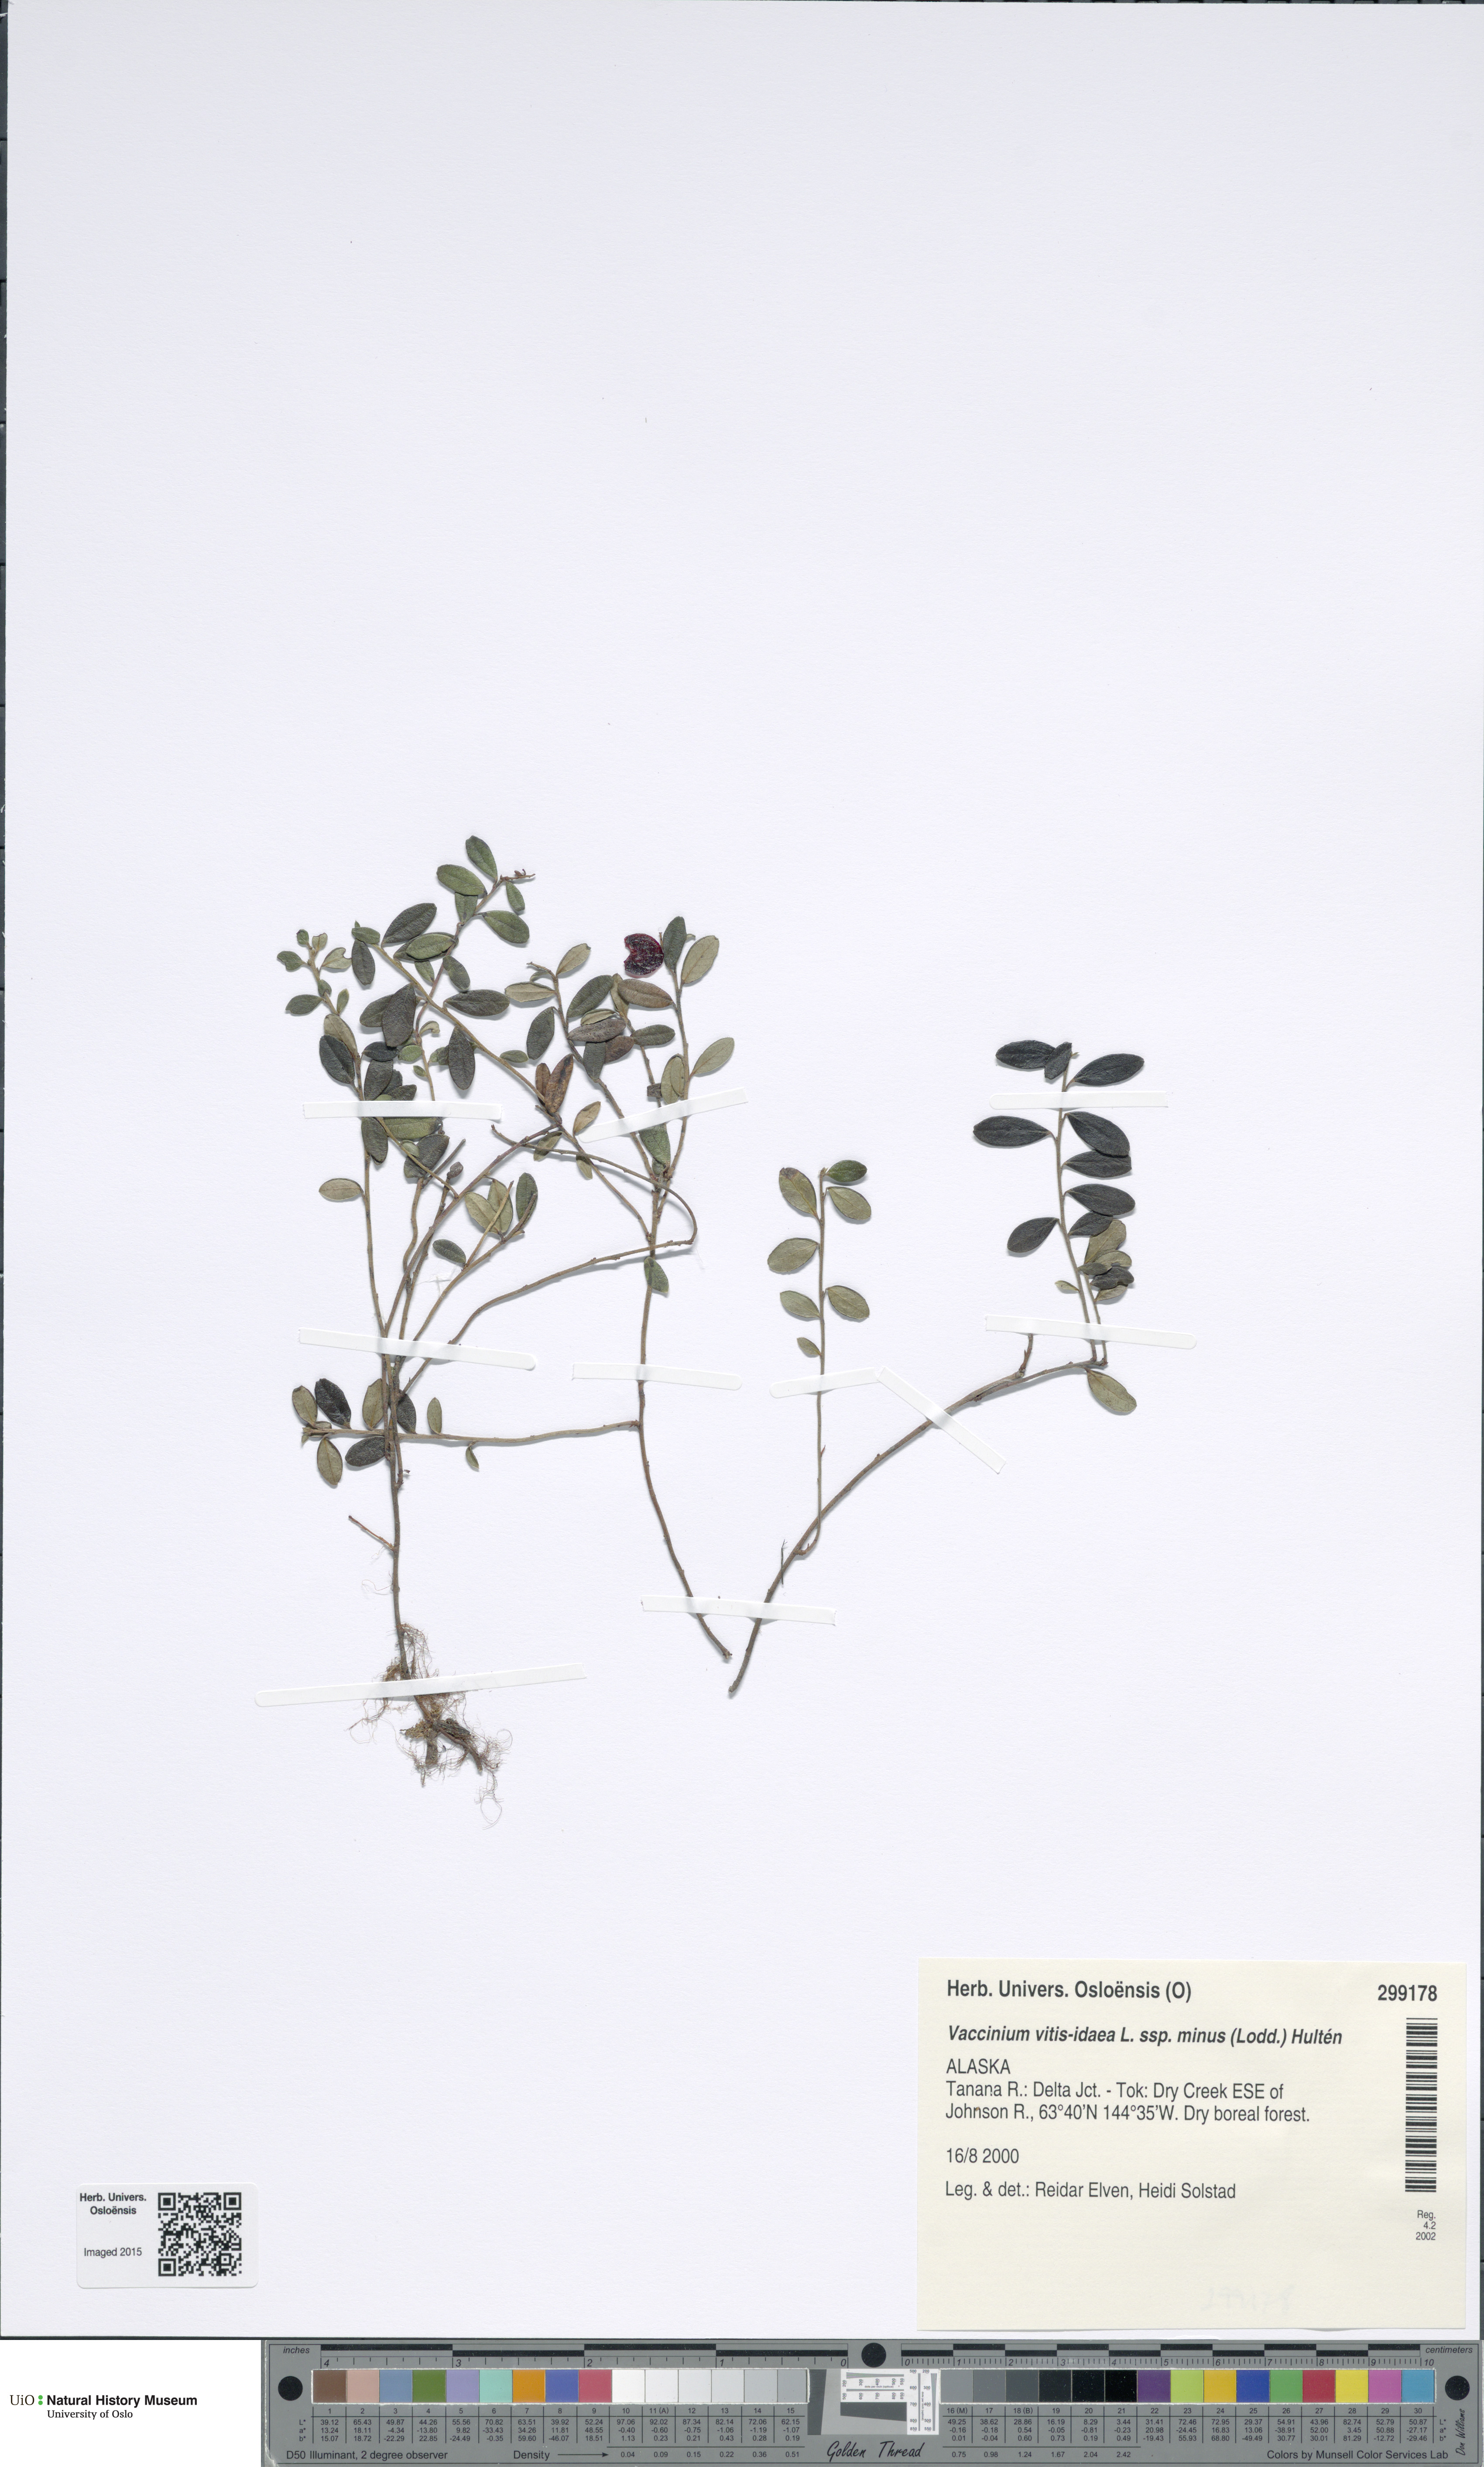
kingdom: Plantae
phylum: Tracheophyta
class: Magnoliopsida
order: Ericales
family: Ericaceae
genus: Vaccinium
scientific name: Vaccinium vitis-idaea
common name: Cowberry
